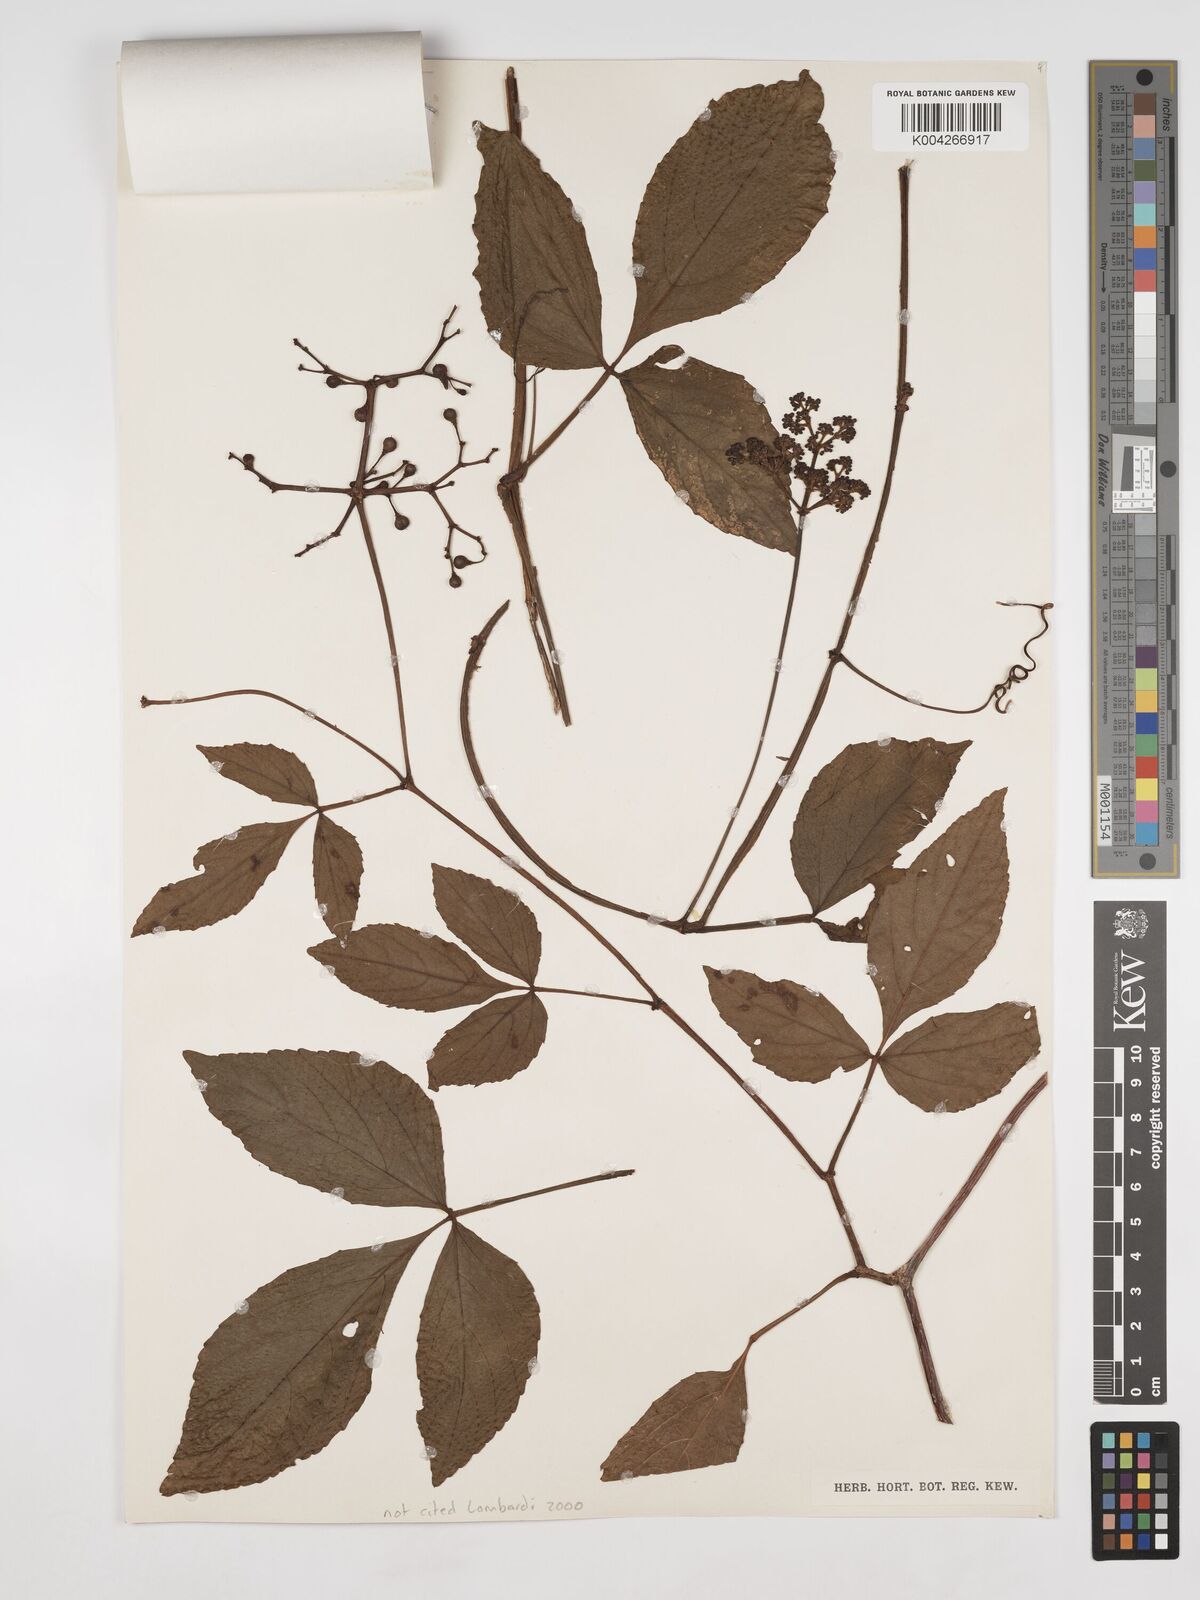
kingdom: Plantae
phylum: Tracheophyta
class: Magnoliopsida
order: Vitales
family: Vitaceae
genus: Cissus
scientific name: Cissus erosa
